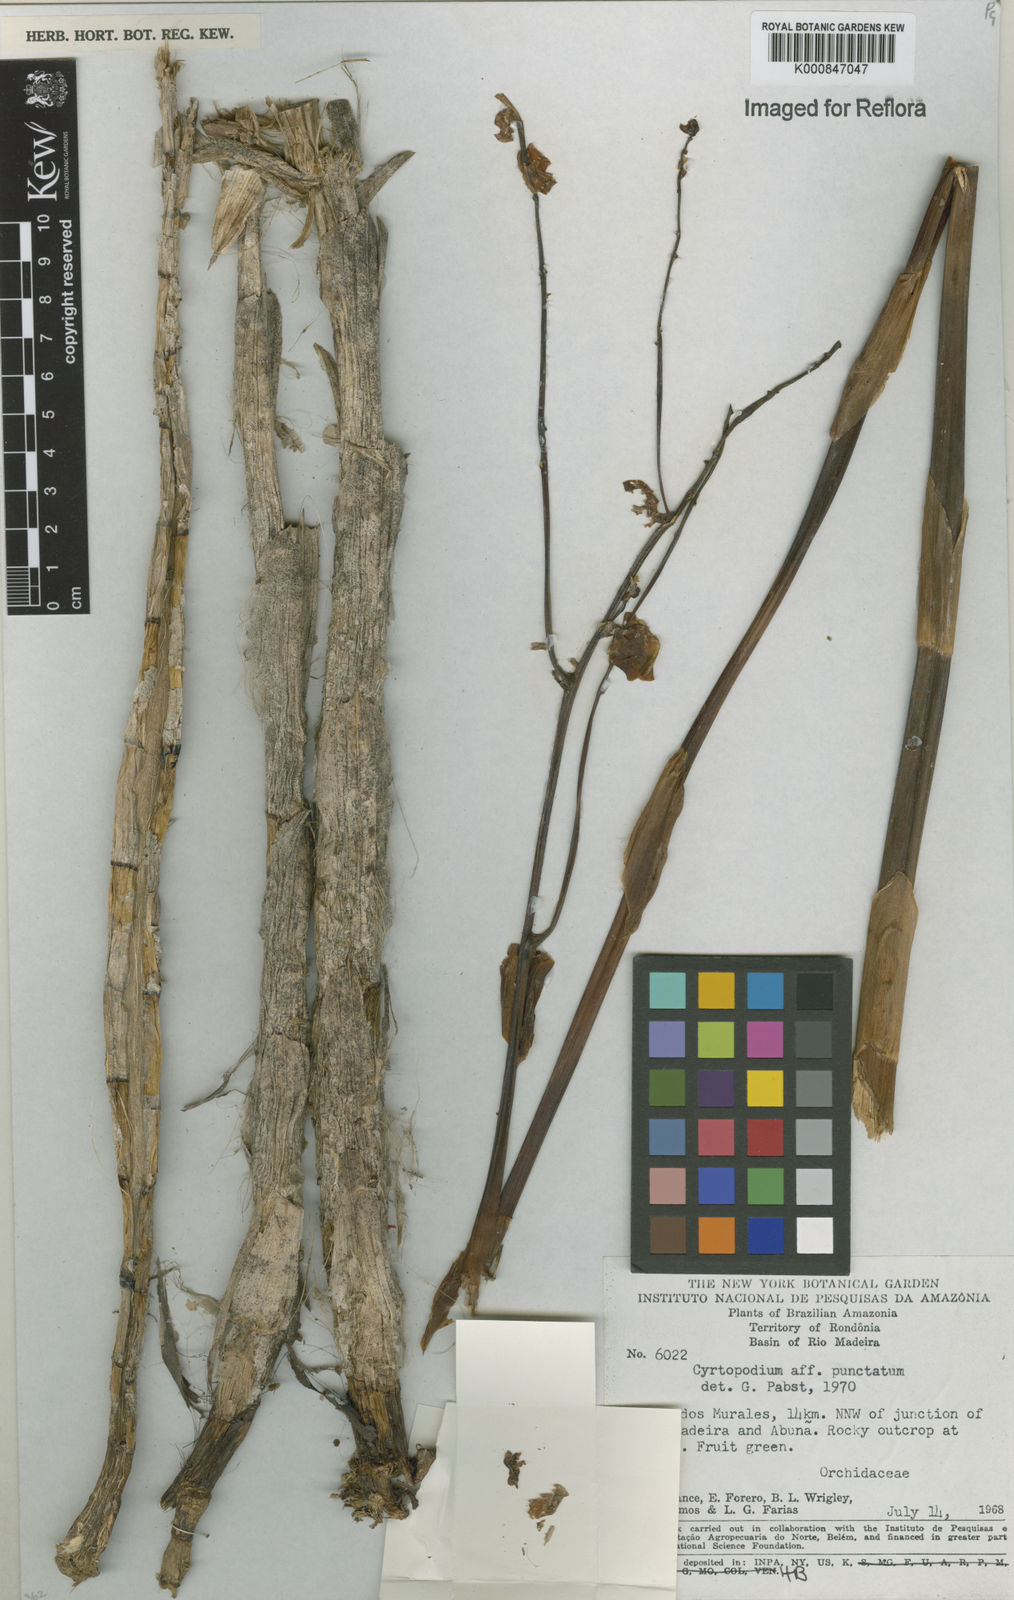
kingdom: Plantae
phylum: Tracheophyta
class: Liliopsida
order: Asparagales
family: Orchidaceae
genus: Cyrtopodium
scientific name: Cyrtopodium punctatum
